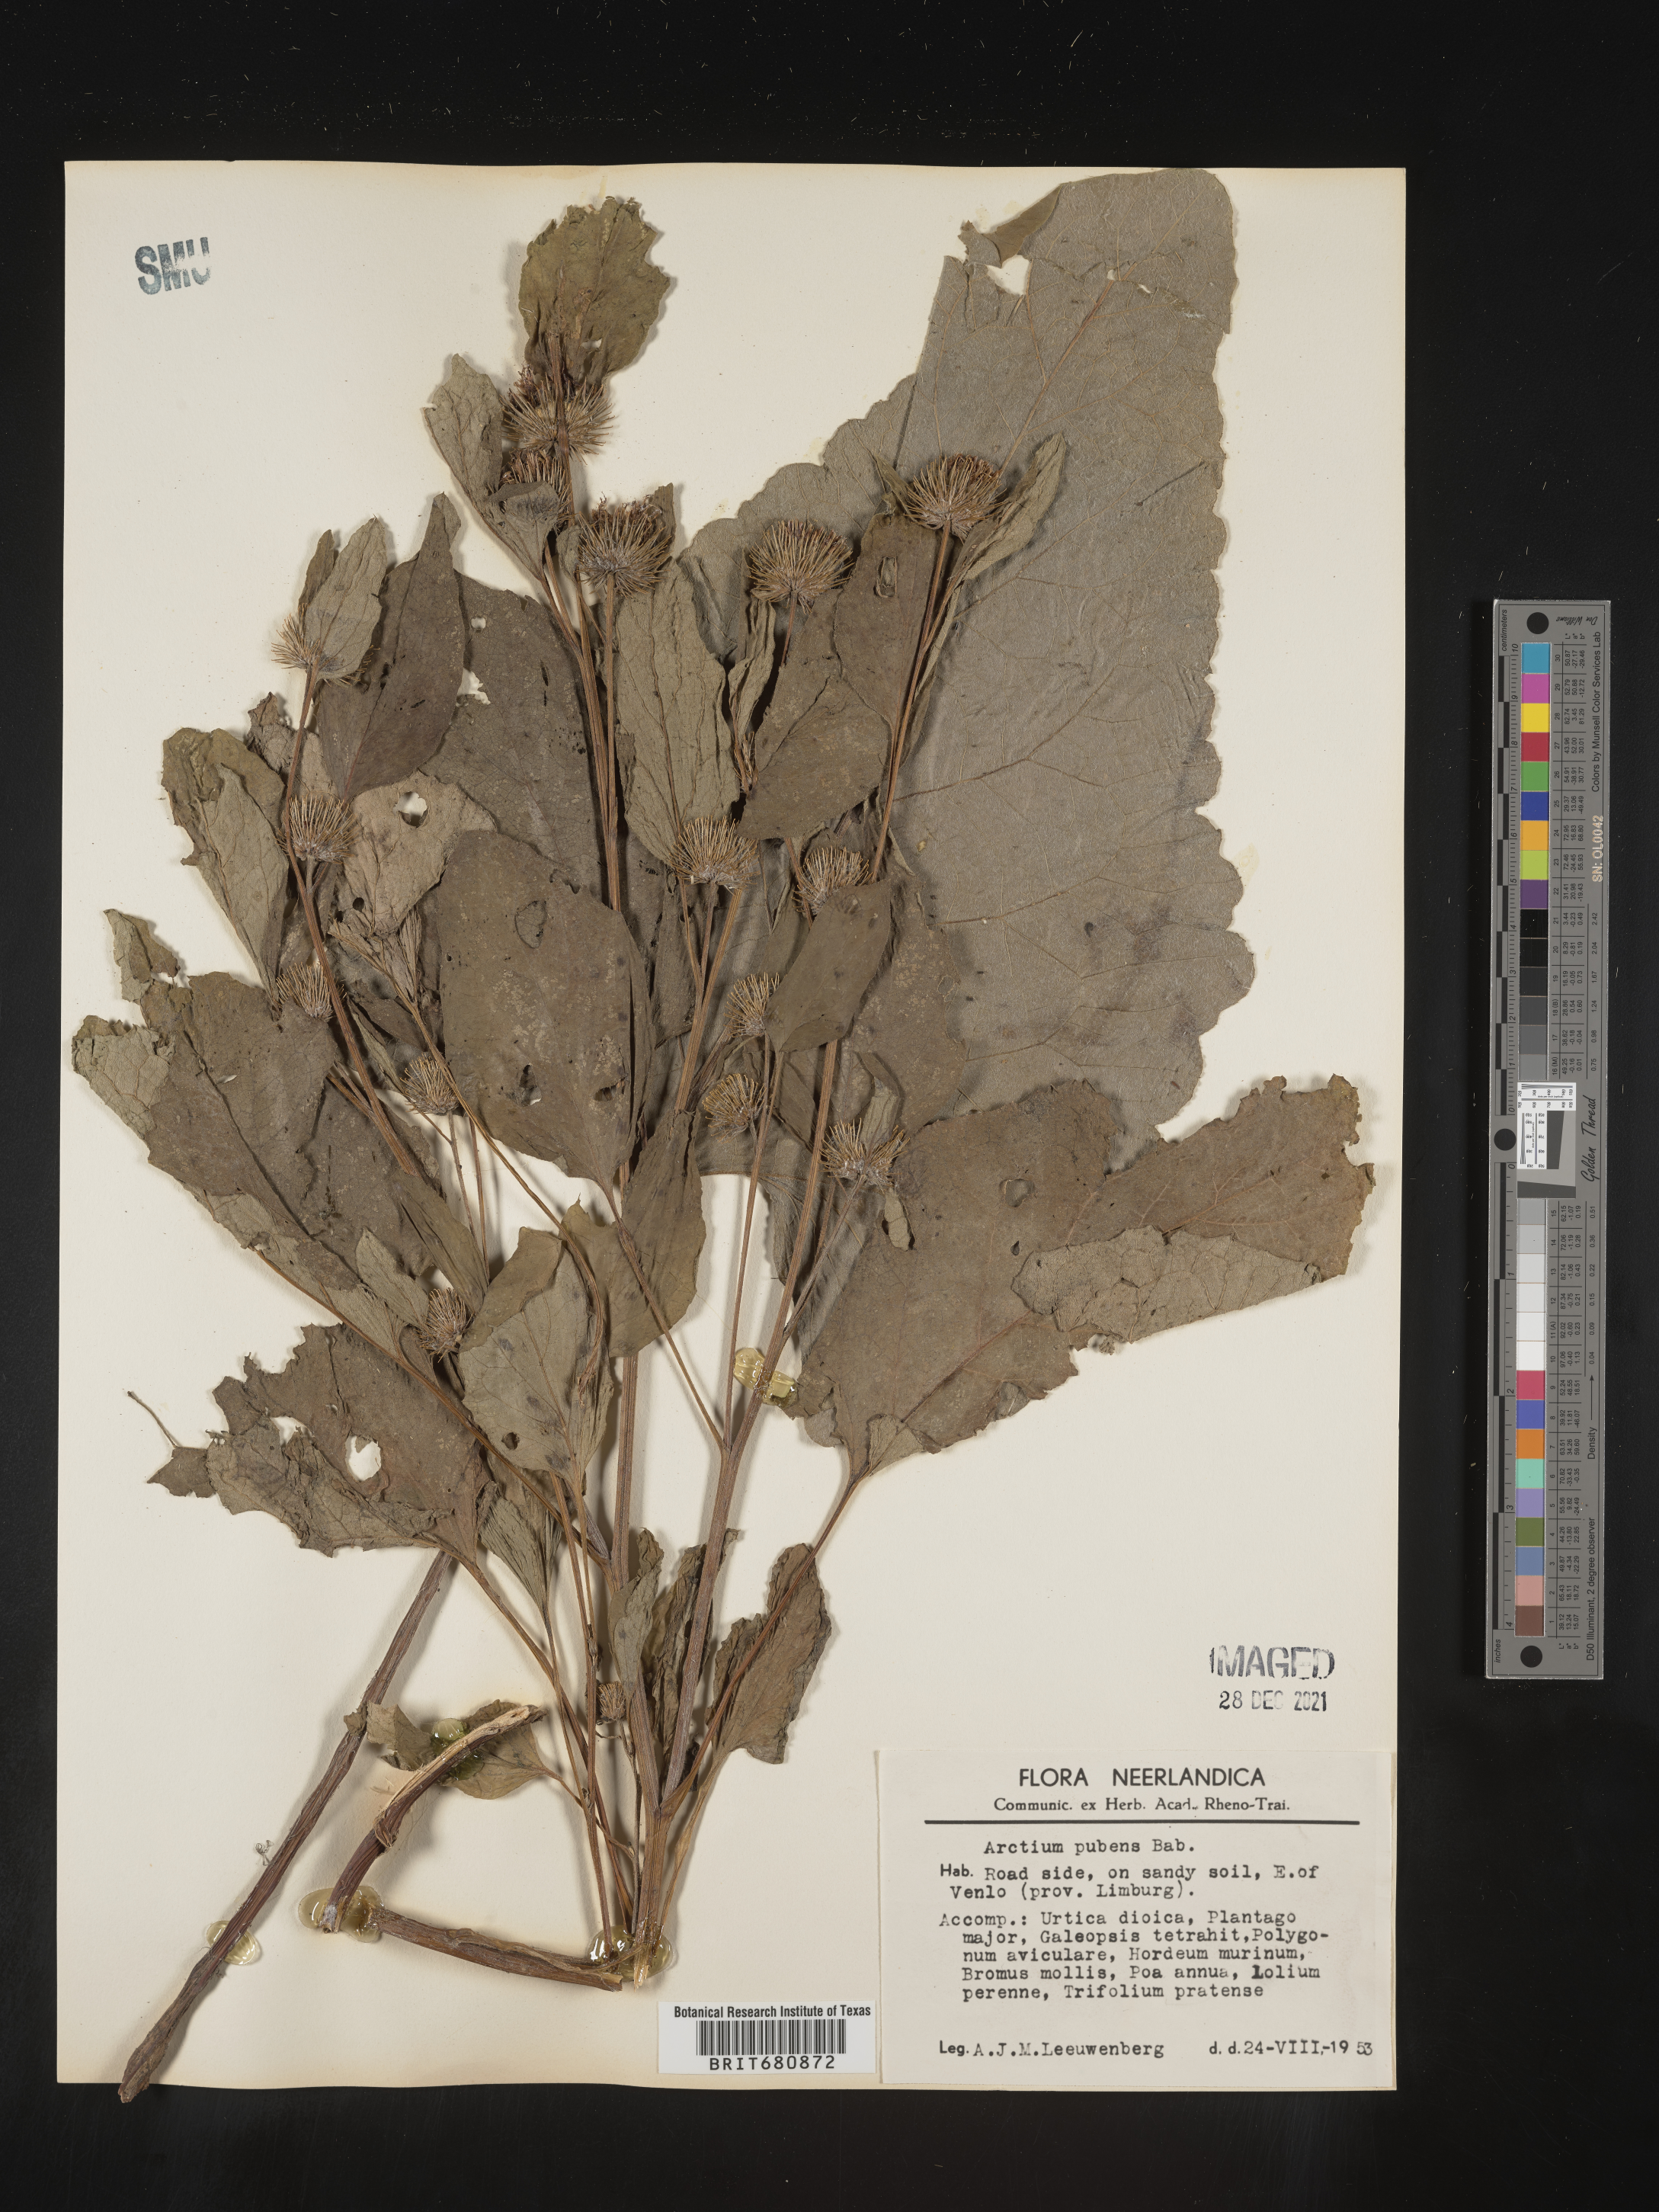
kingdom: Plantae
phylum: Tracheophyta
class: Magnoliopsida
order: Asterales
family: Asteraceae
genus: Arctium
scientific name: Arctium tomentosum
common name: Woolly burdock
